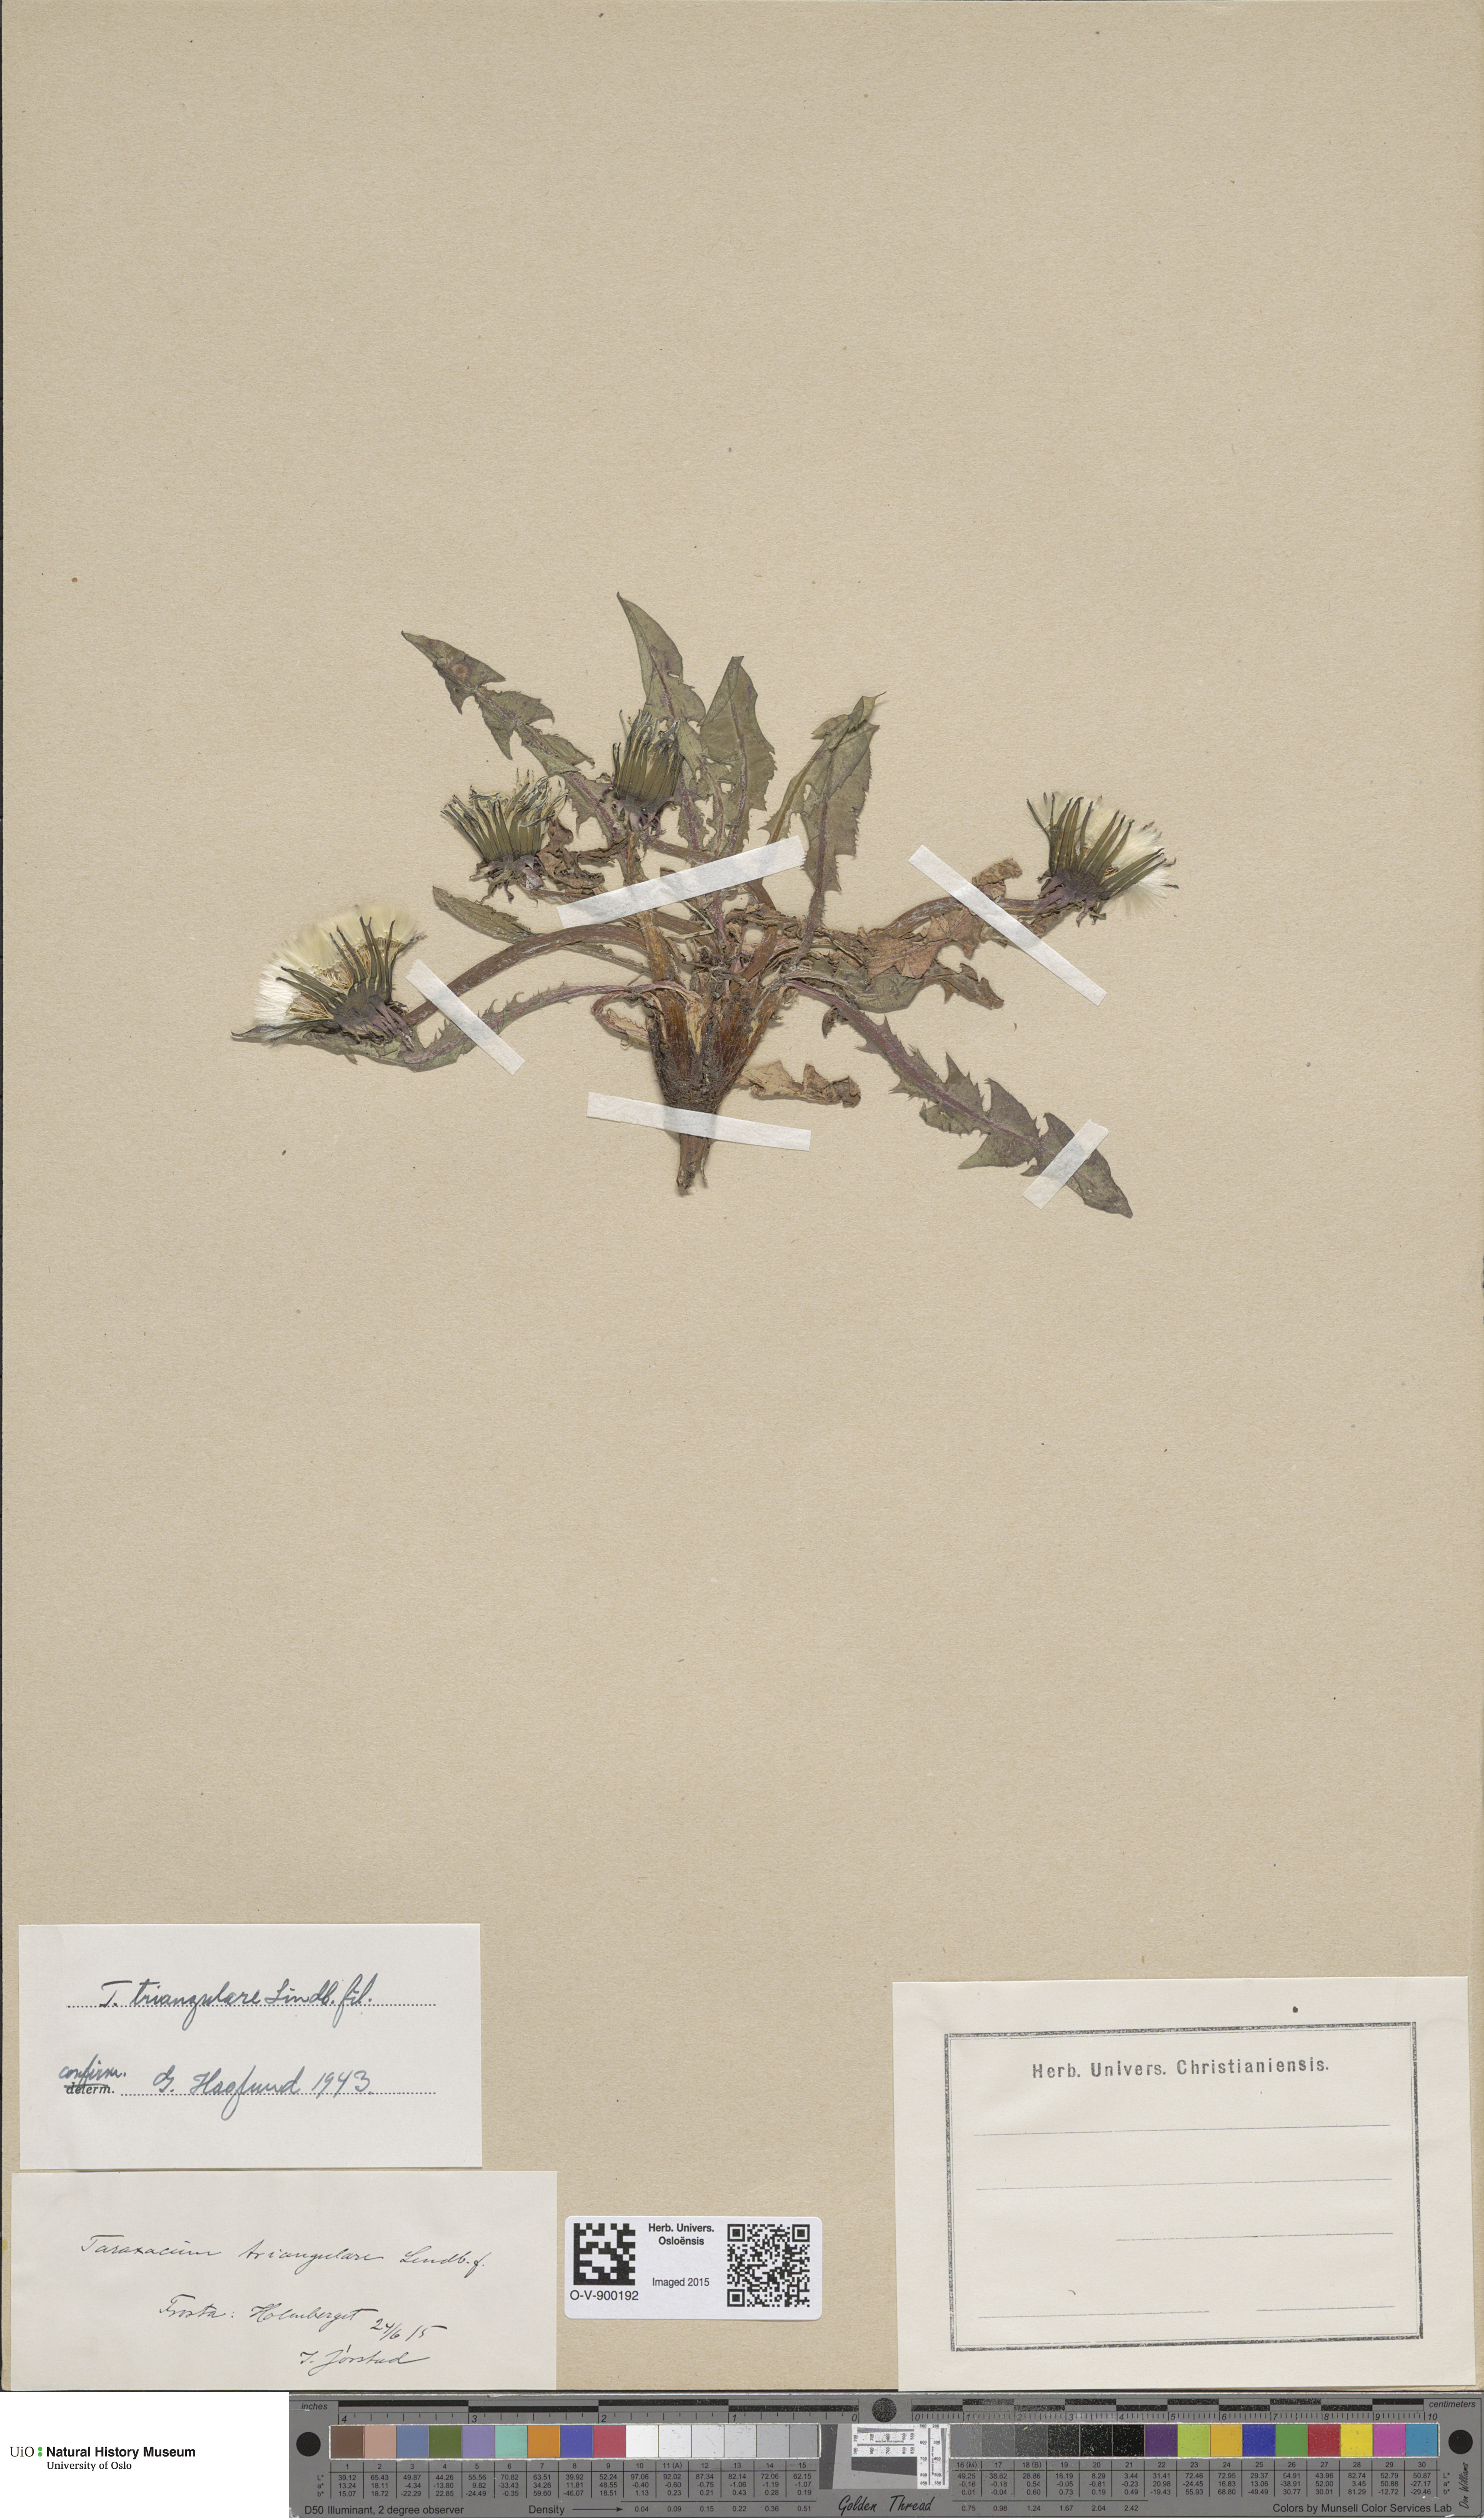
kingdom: Plantae
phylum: Tracheophyta
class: Magnoliopsida
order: Asterales
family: Asteraceae
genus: Taraxacum
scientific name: Taraxacum triangulare
